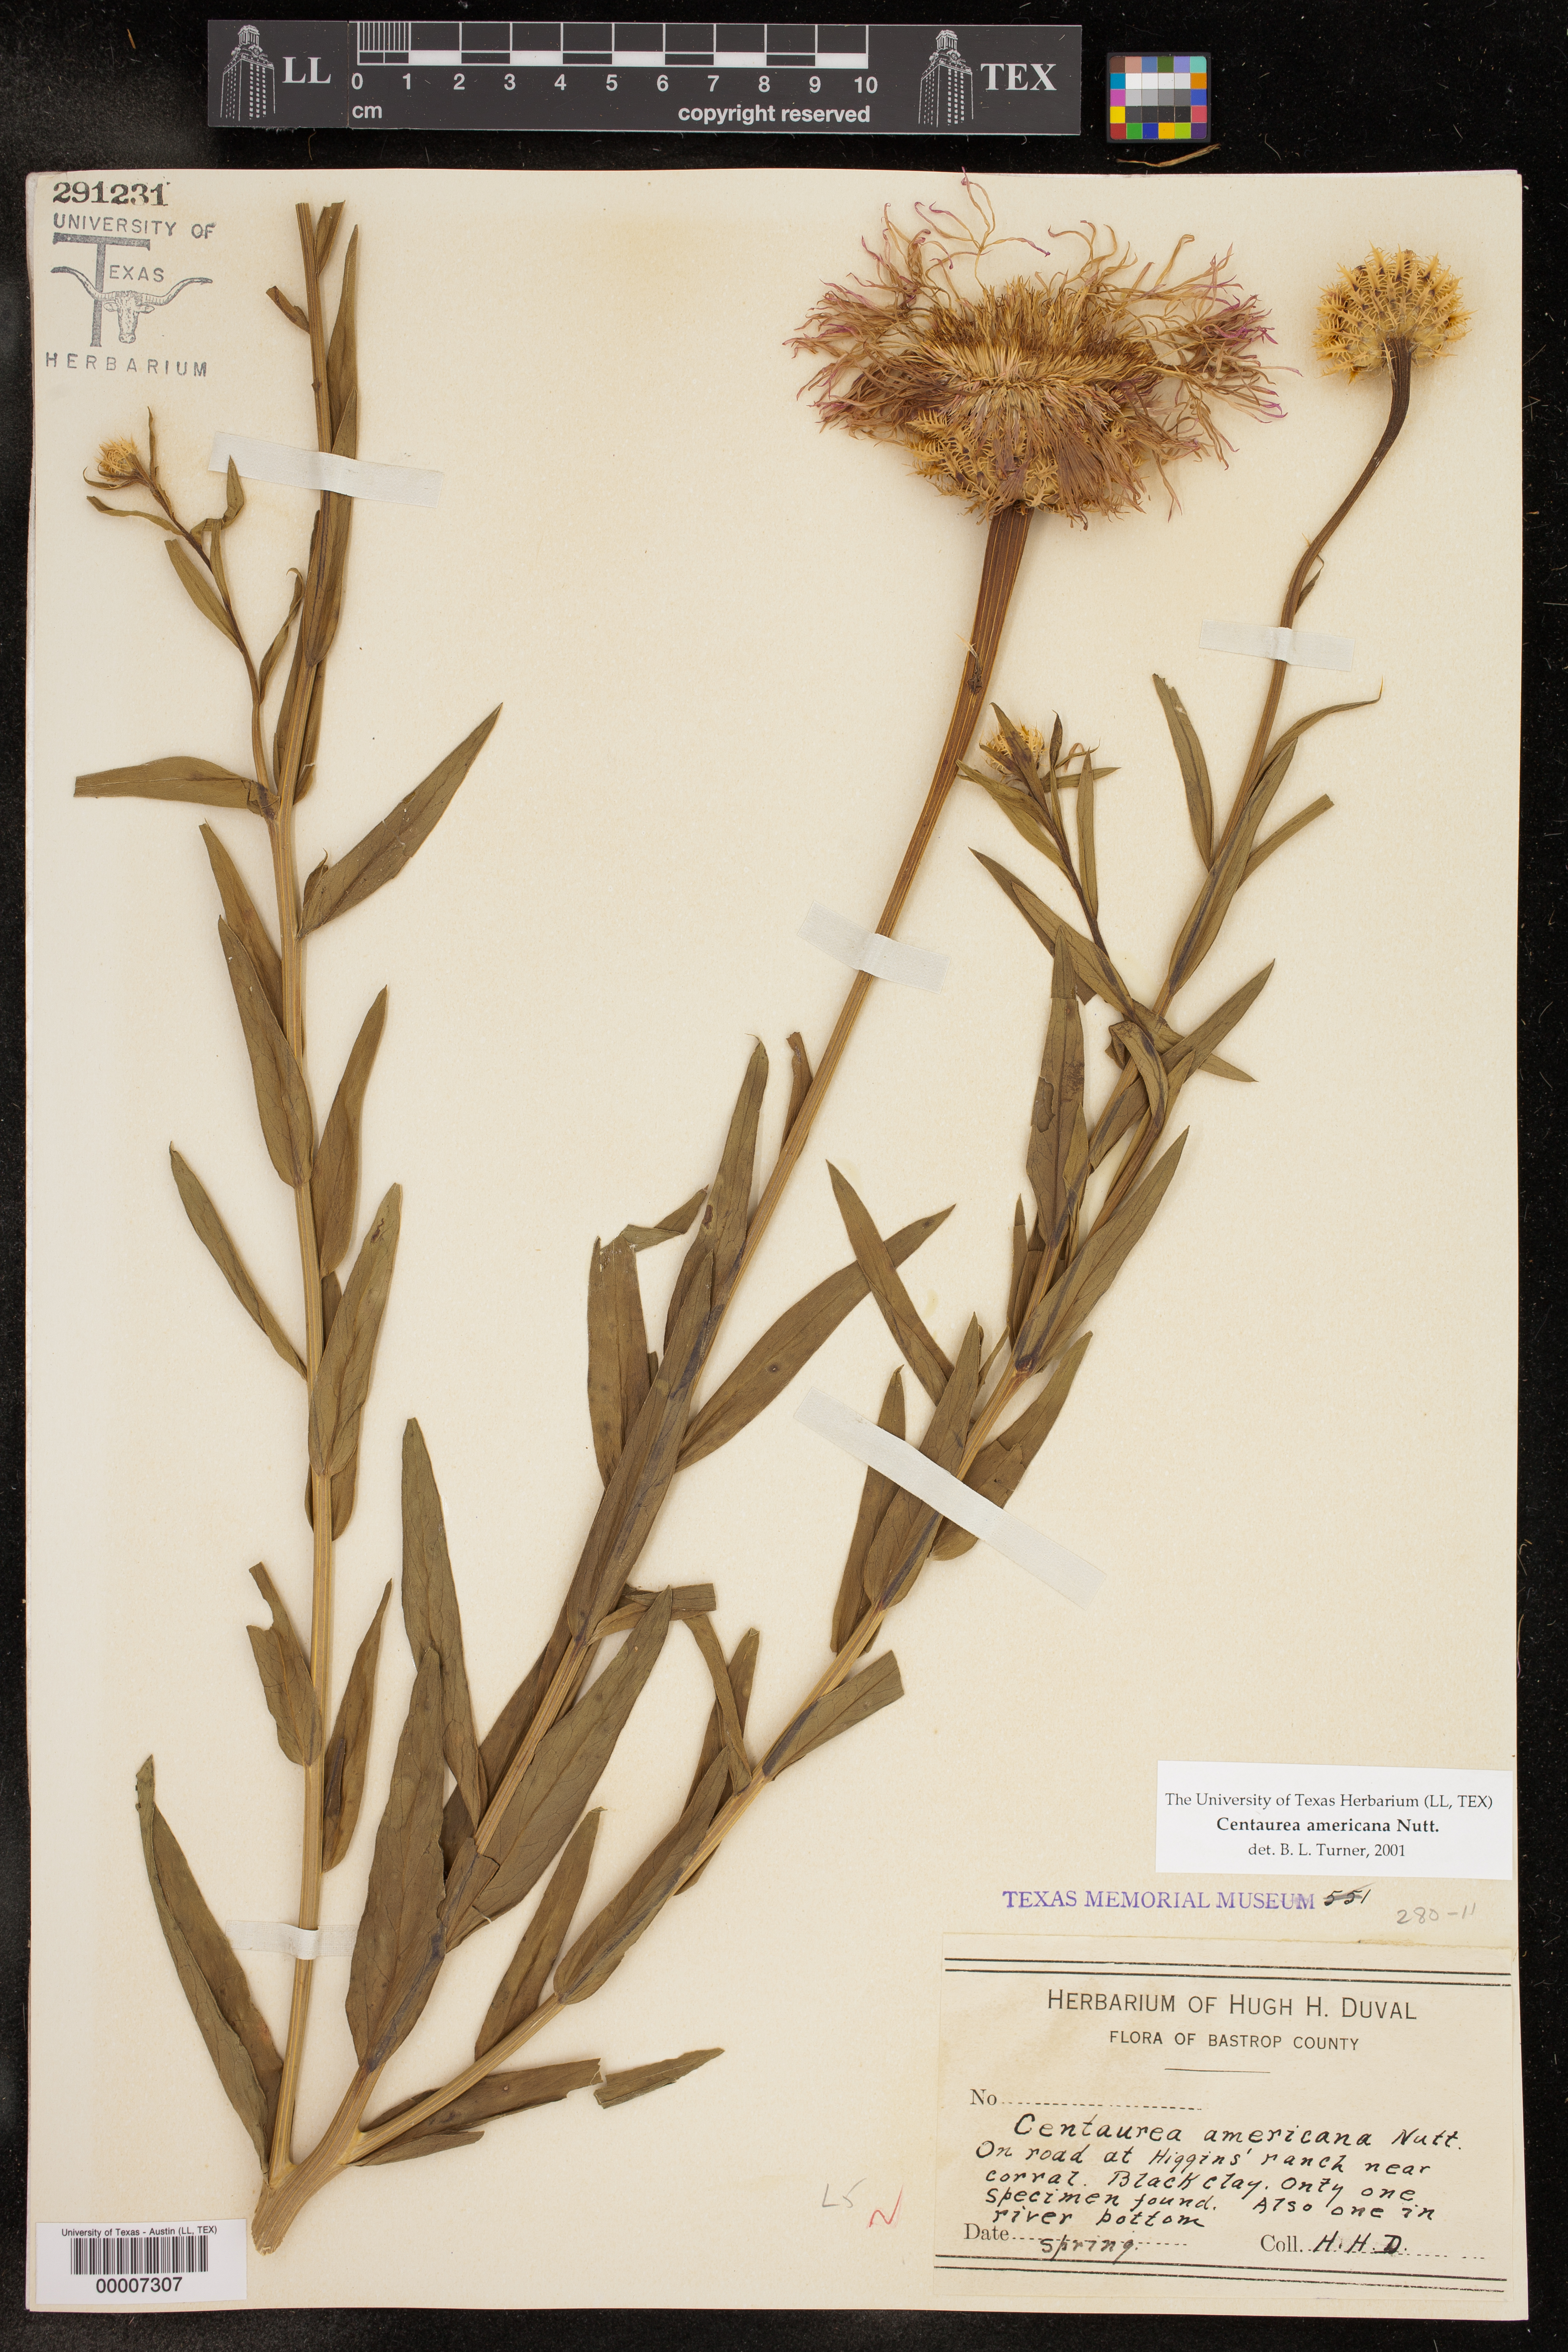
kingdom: Plantae
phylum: Tracheophyta
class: Magnoliopsida
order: Asterales
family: Asteraceae
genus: Plectocephalus
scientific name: Plectocephalus americanus
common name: American basket-flower
